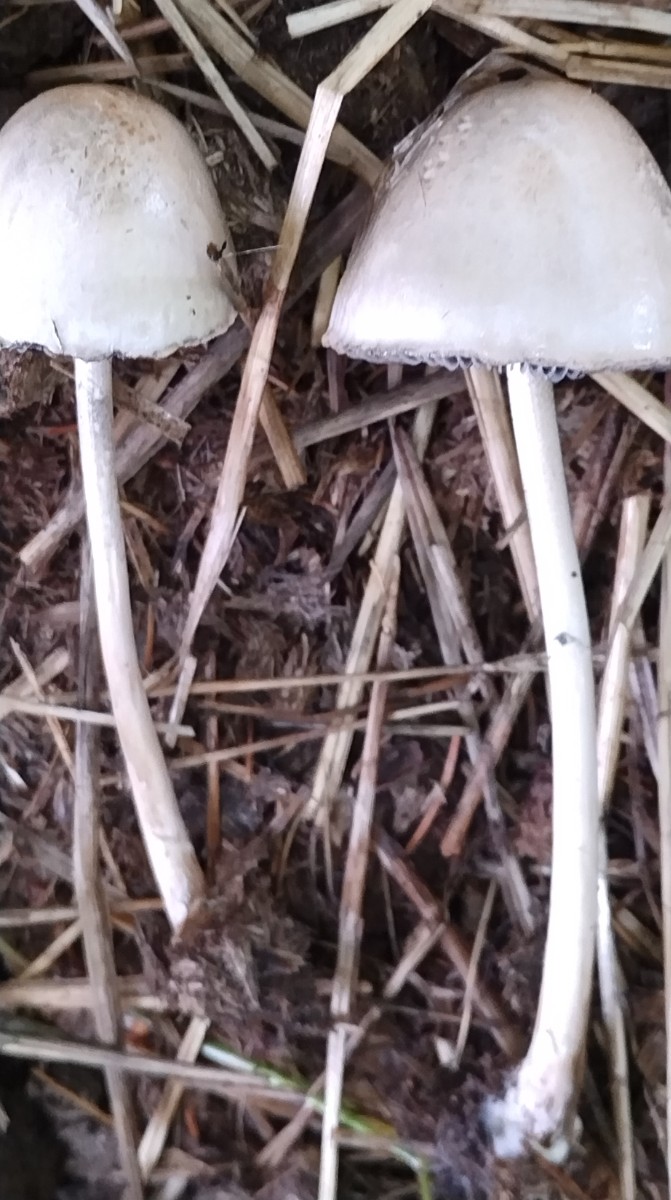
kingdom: Fungi
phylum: Basidiomycota
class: Agaricomycetes
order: Agaricales
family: Bolbitiaceae
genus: Panaeolus
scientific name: Panaeolus semiovatus
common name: ring-glanshat
